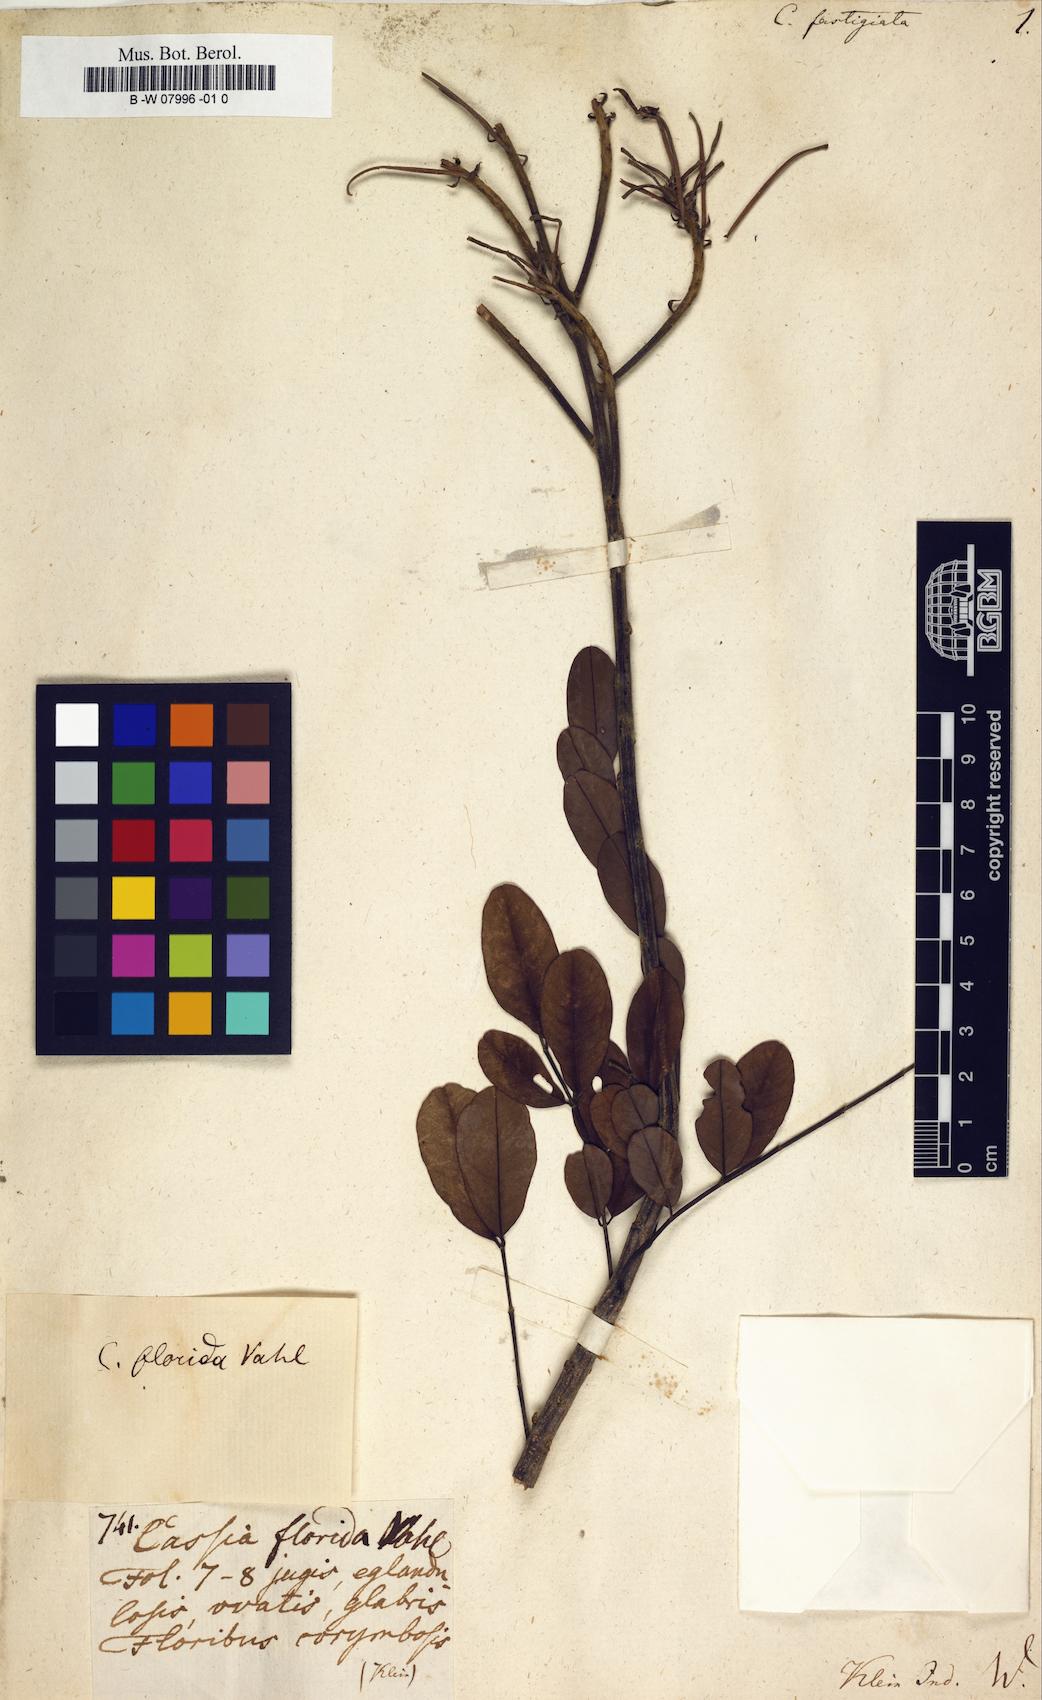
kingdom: Plantae
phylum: Tracheophyta
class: Magnoliopsida
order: Fabales
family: Fabaceae
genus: Senna
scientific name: Senna
